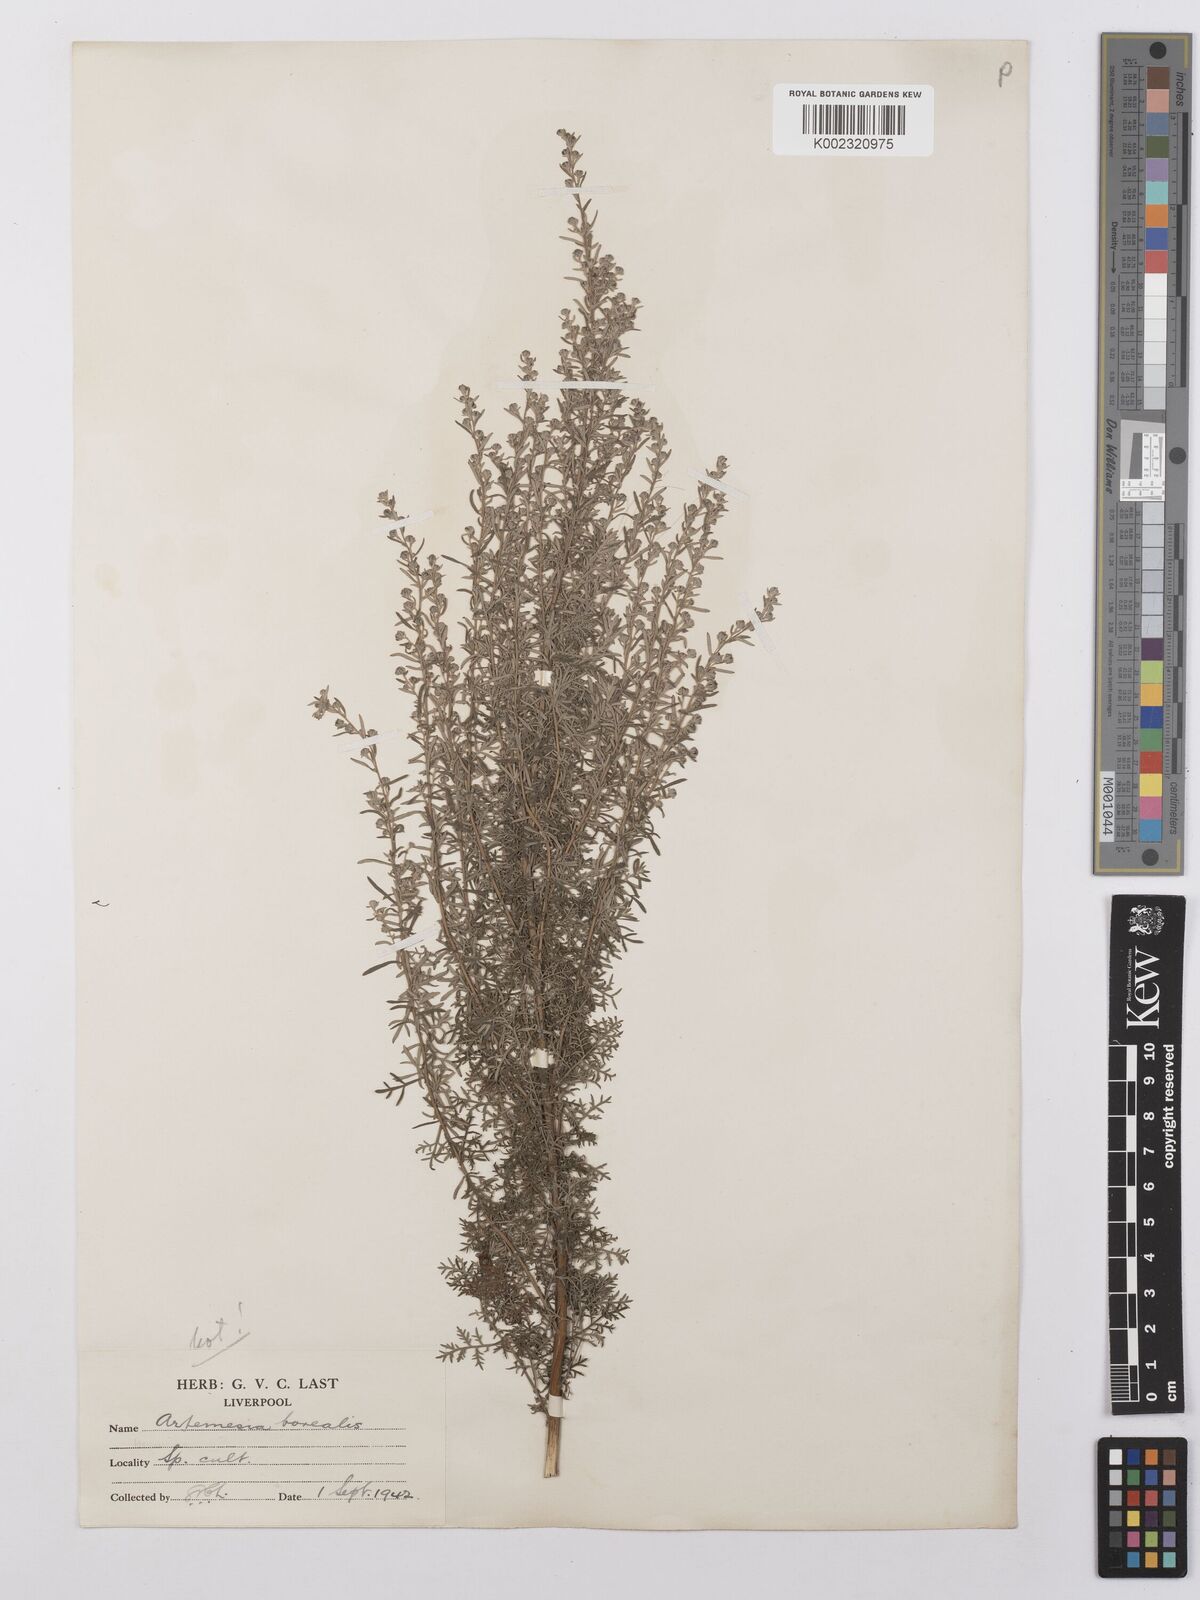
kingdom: Plantae
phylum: Tracheophyta
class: Magnoliopsida
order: Asterales
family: Asteraceae
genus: Artemisia
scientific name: Artemisia
